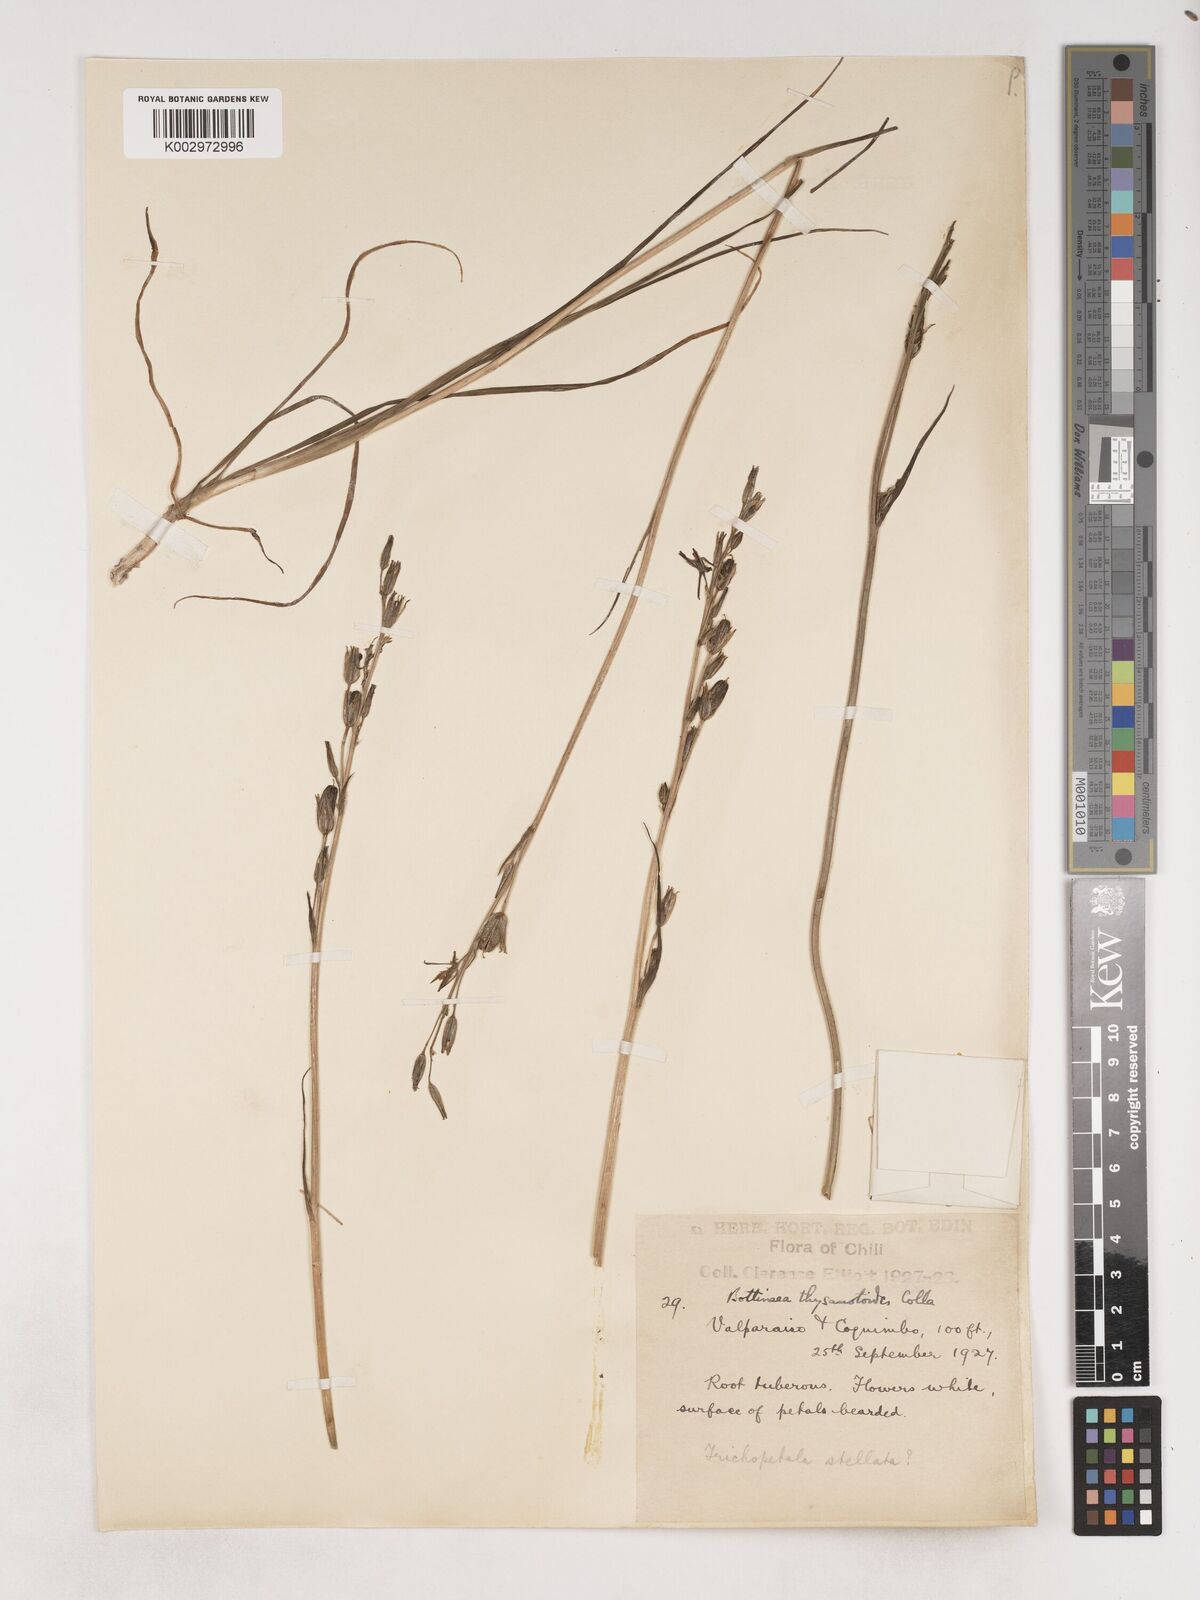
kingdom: Plantae
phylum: Tracheophyta
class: Liliopsida
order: Asparagales
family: Asparagaceae
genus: Trichopetalum
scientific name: Trichopetalum plumosum
